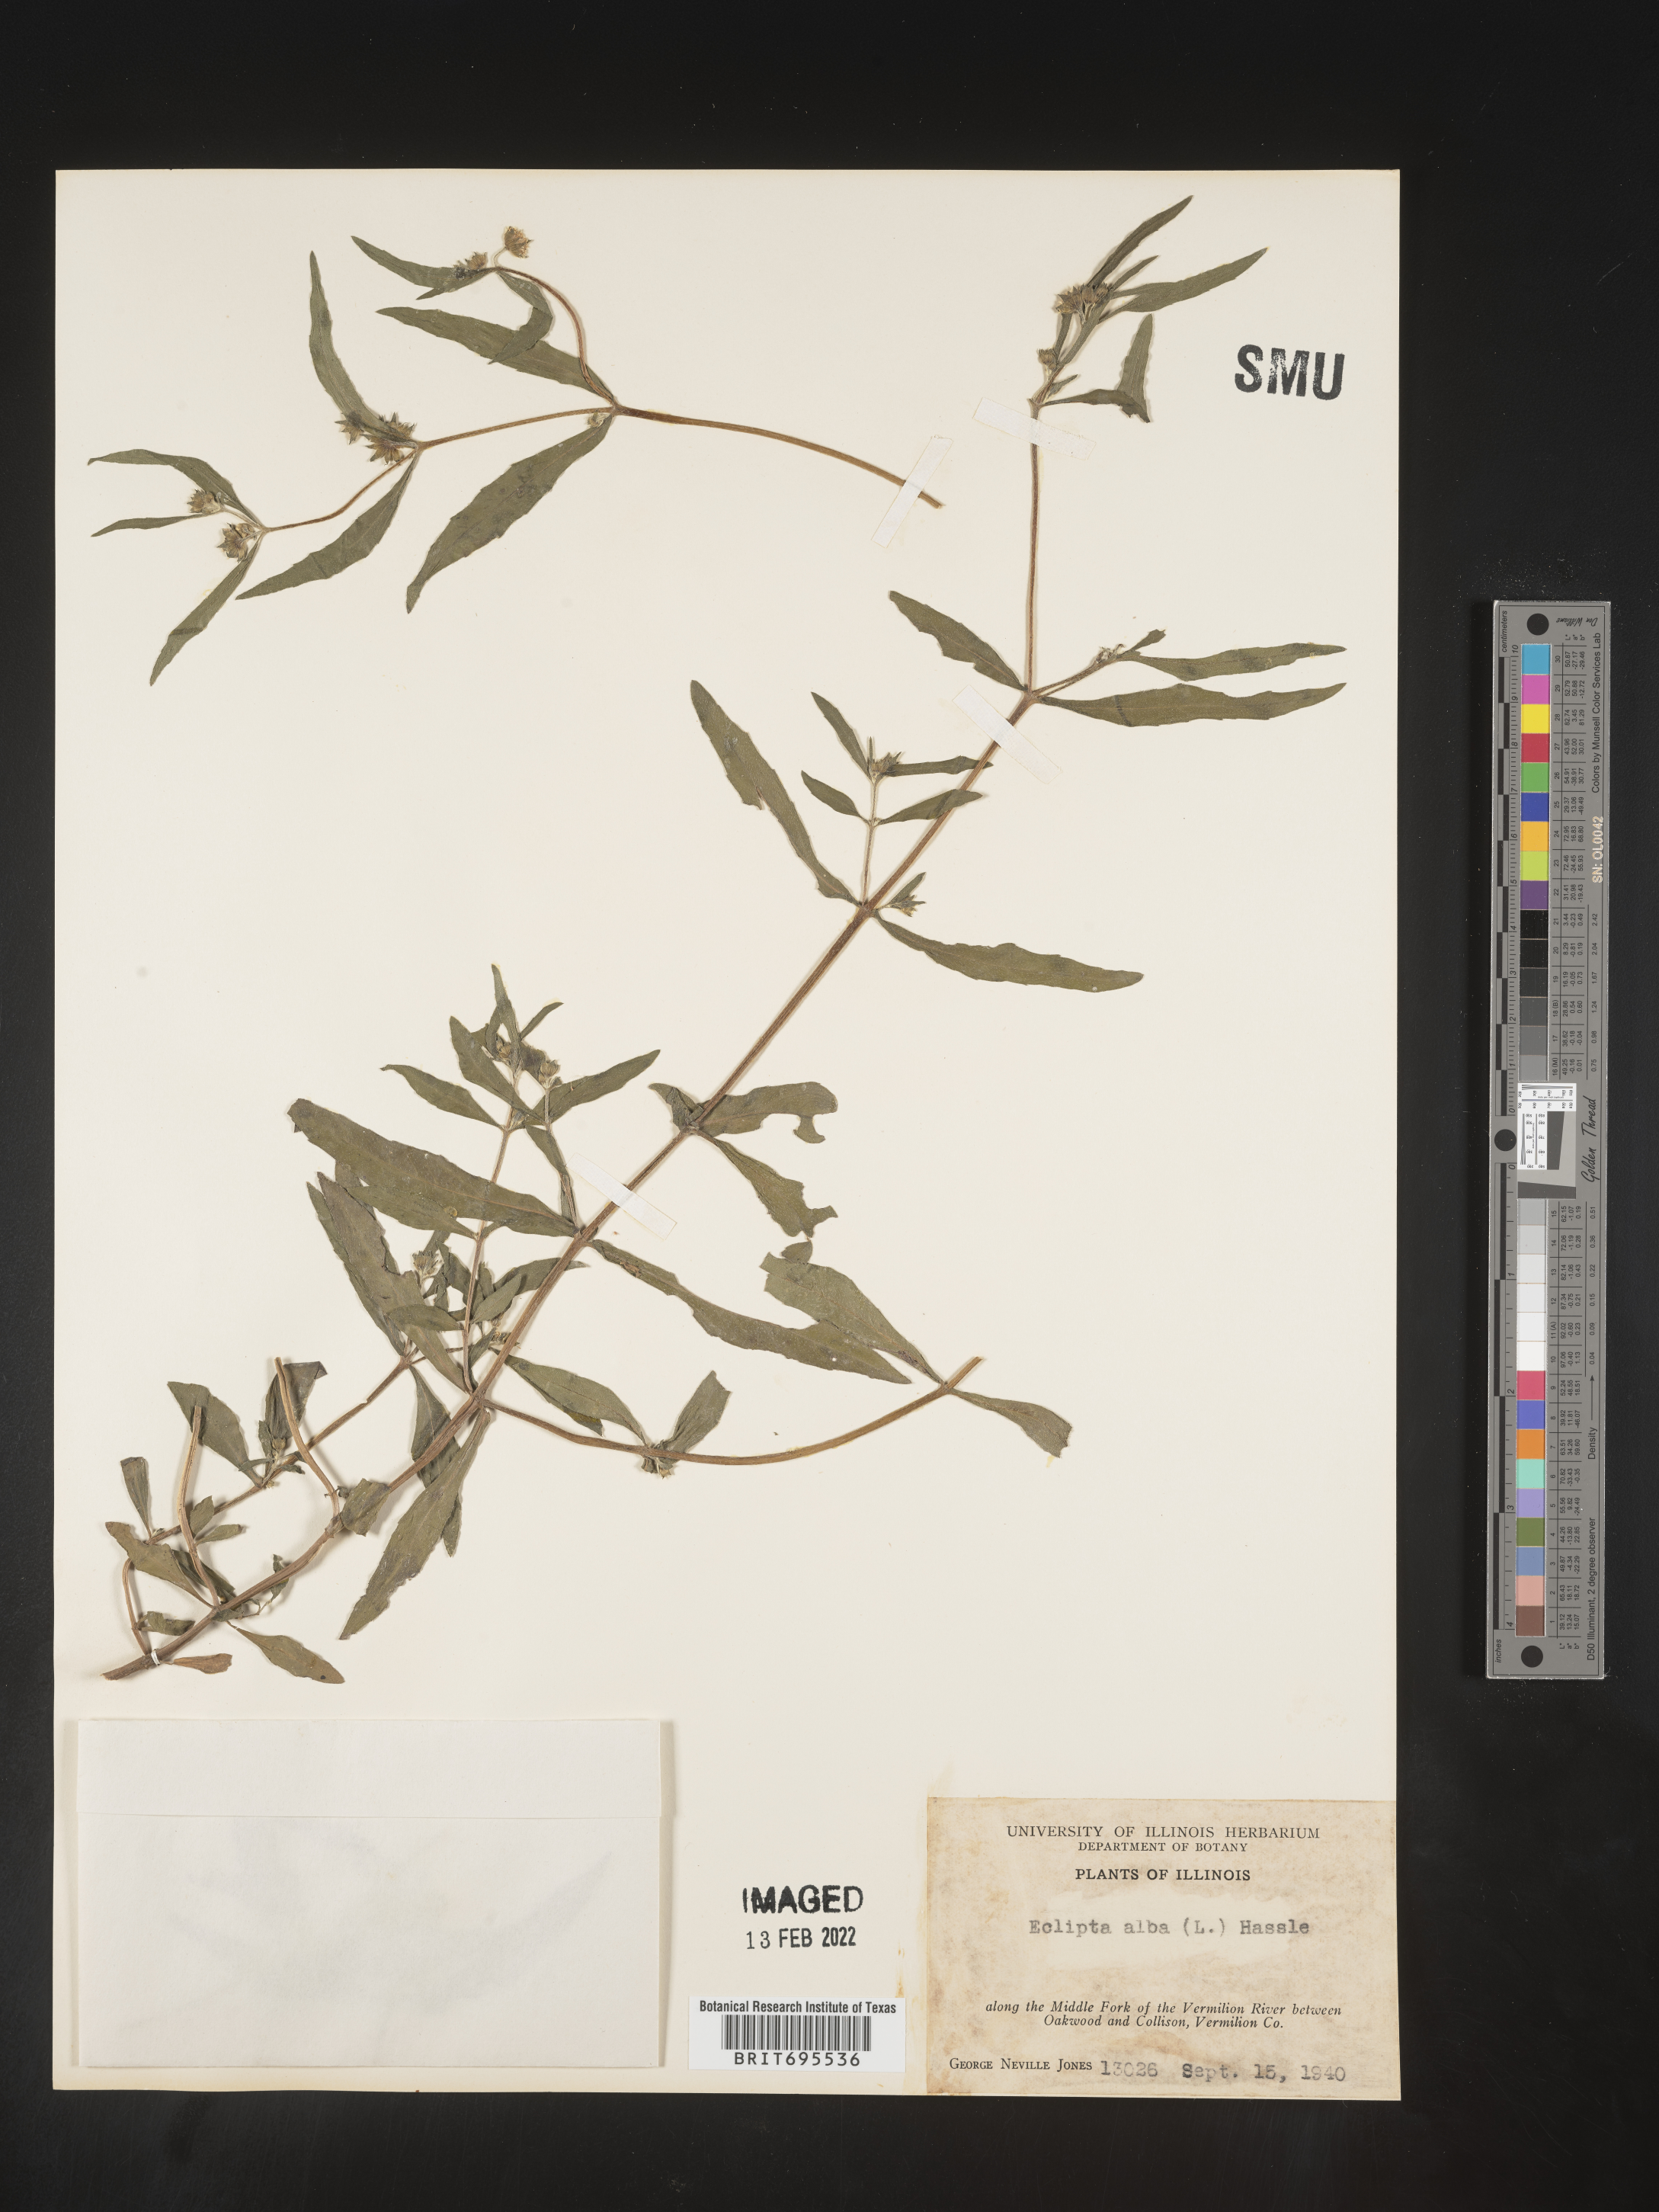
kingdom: Plantae
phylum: Tracheophyta
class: Magnoliopsida
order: Asterales
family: Asteraceae
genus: Eclipta
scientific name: Eclipta alba
